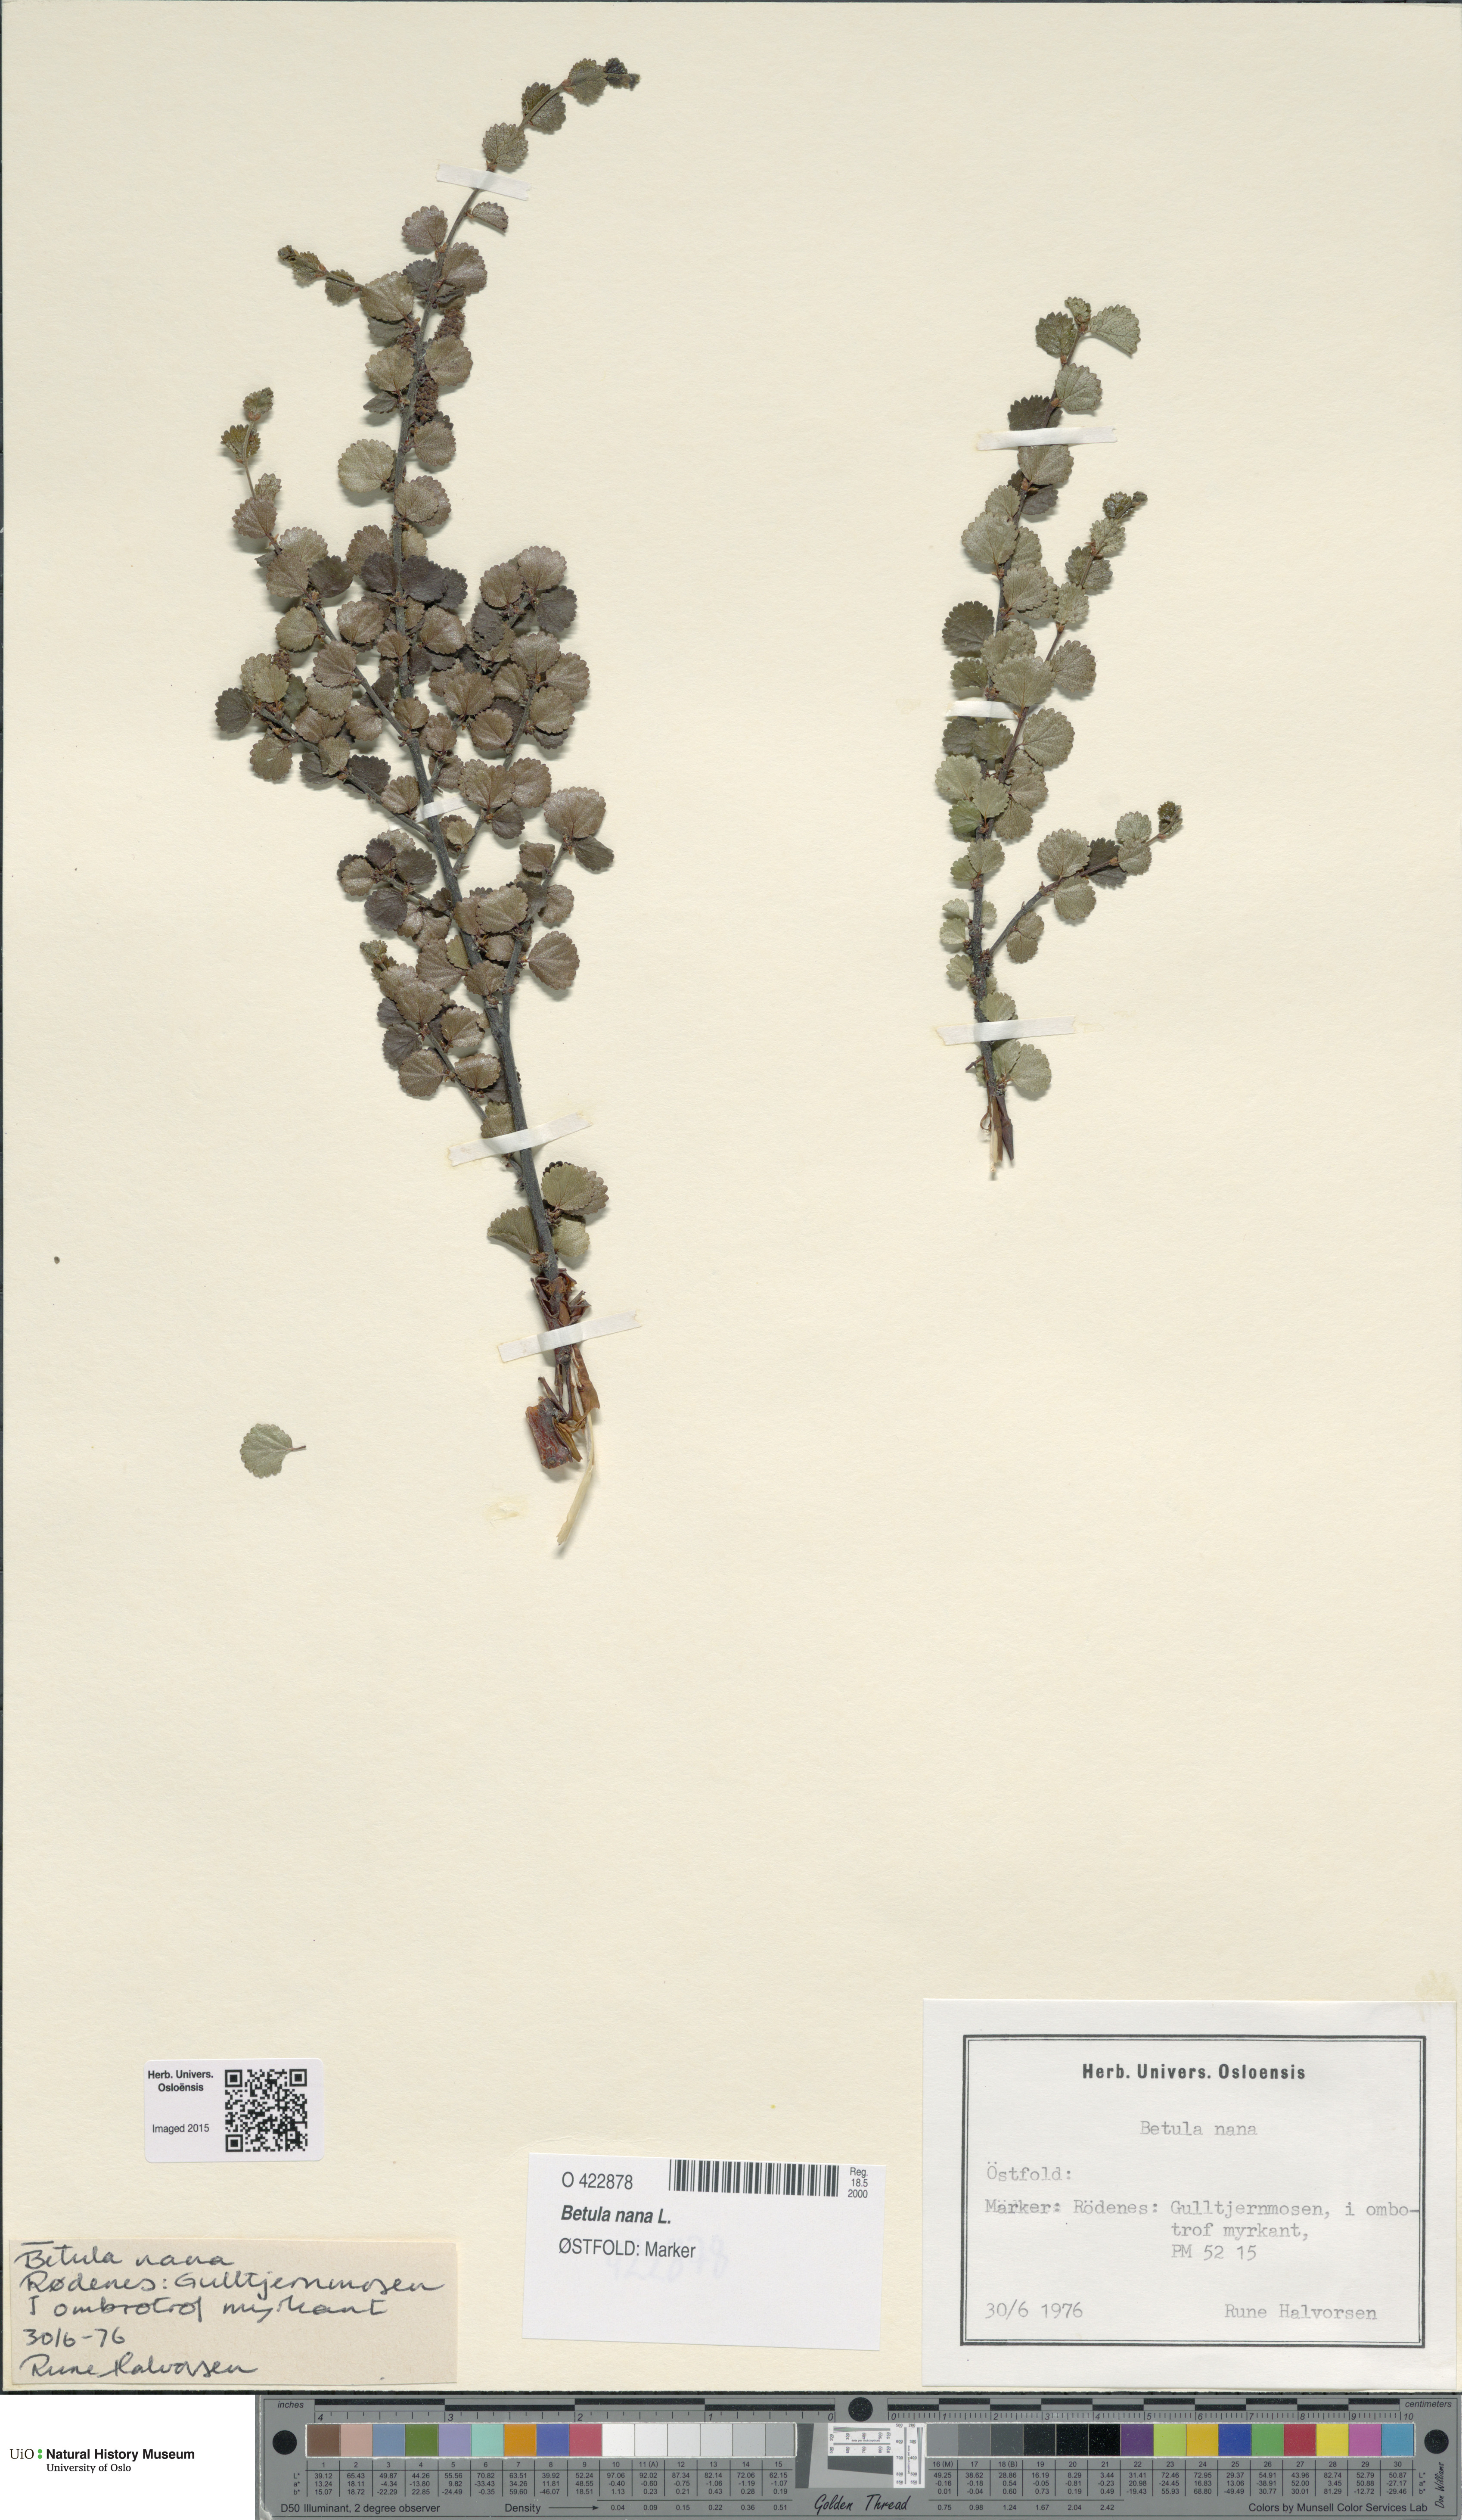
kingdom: Plantae
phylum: Tracheophyta
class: Magnoliopsida
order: Fagales
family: Betulaceae
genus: Betula
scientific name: Betula nana
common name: Arctic dwarf birch
